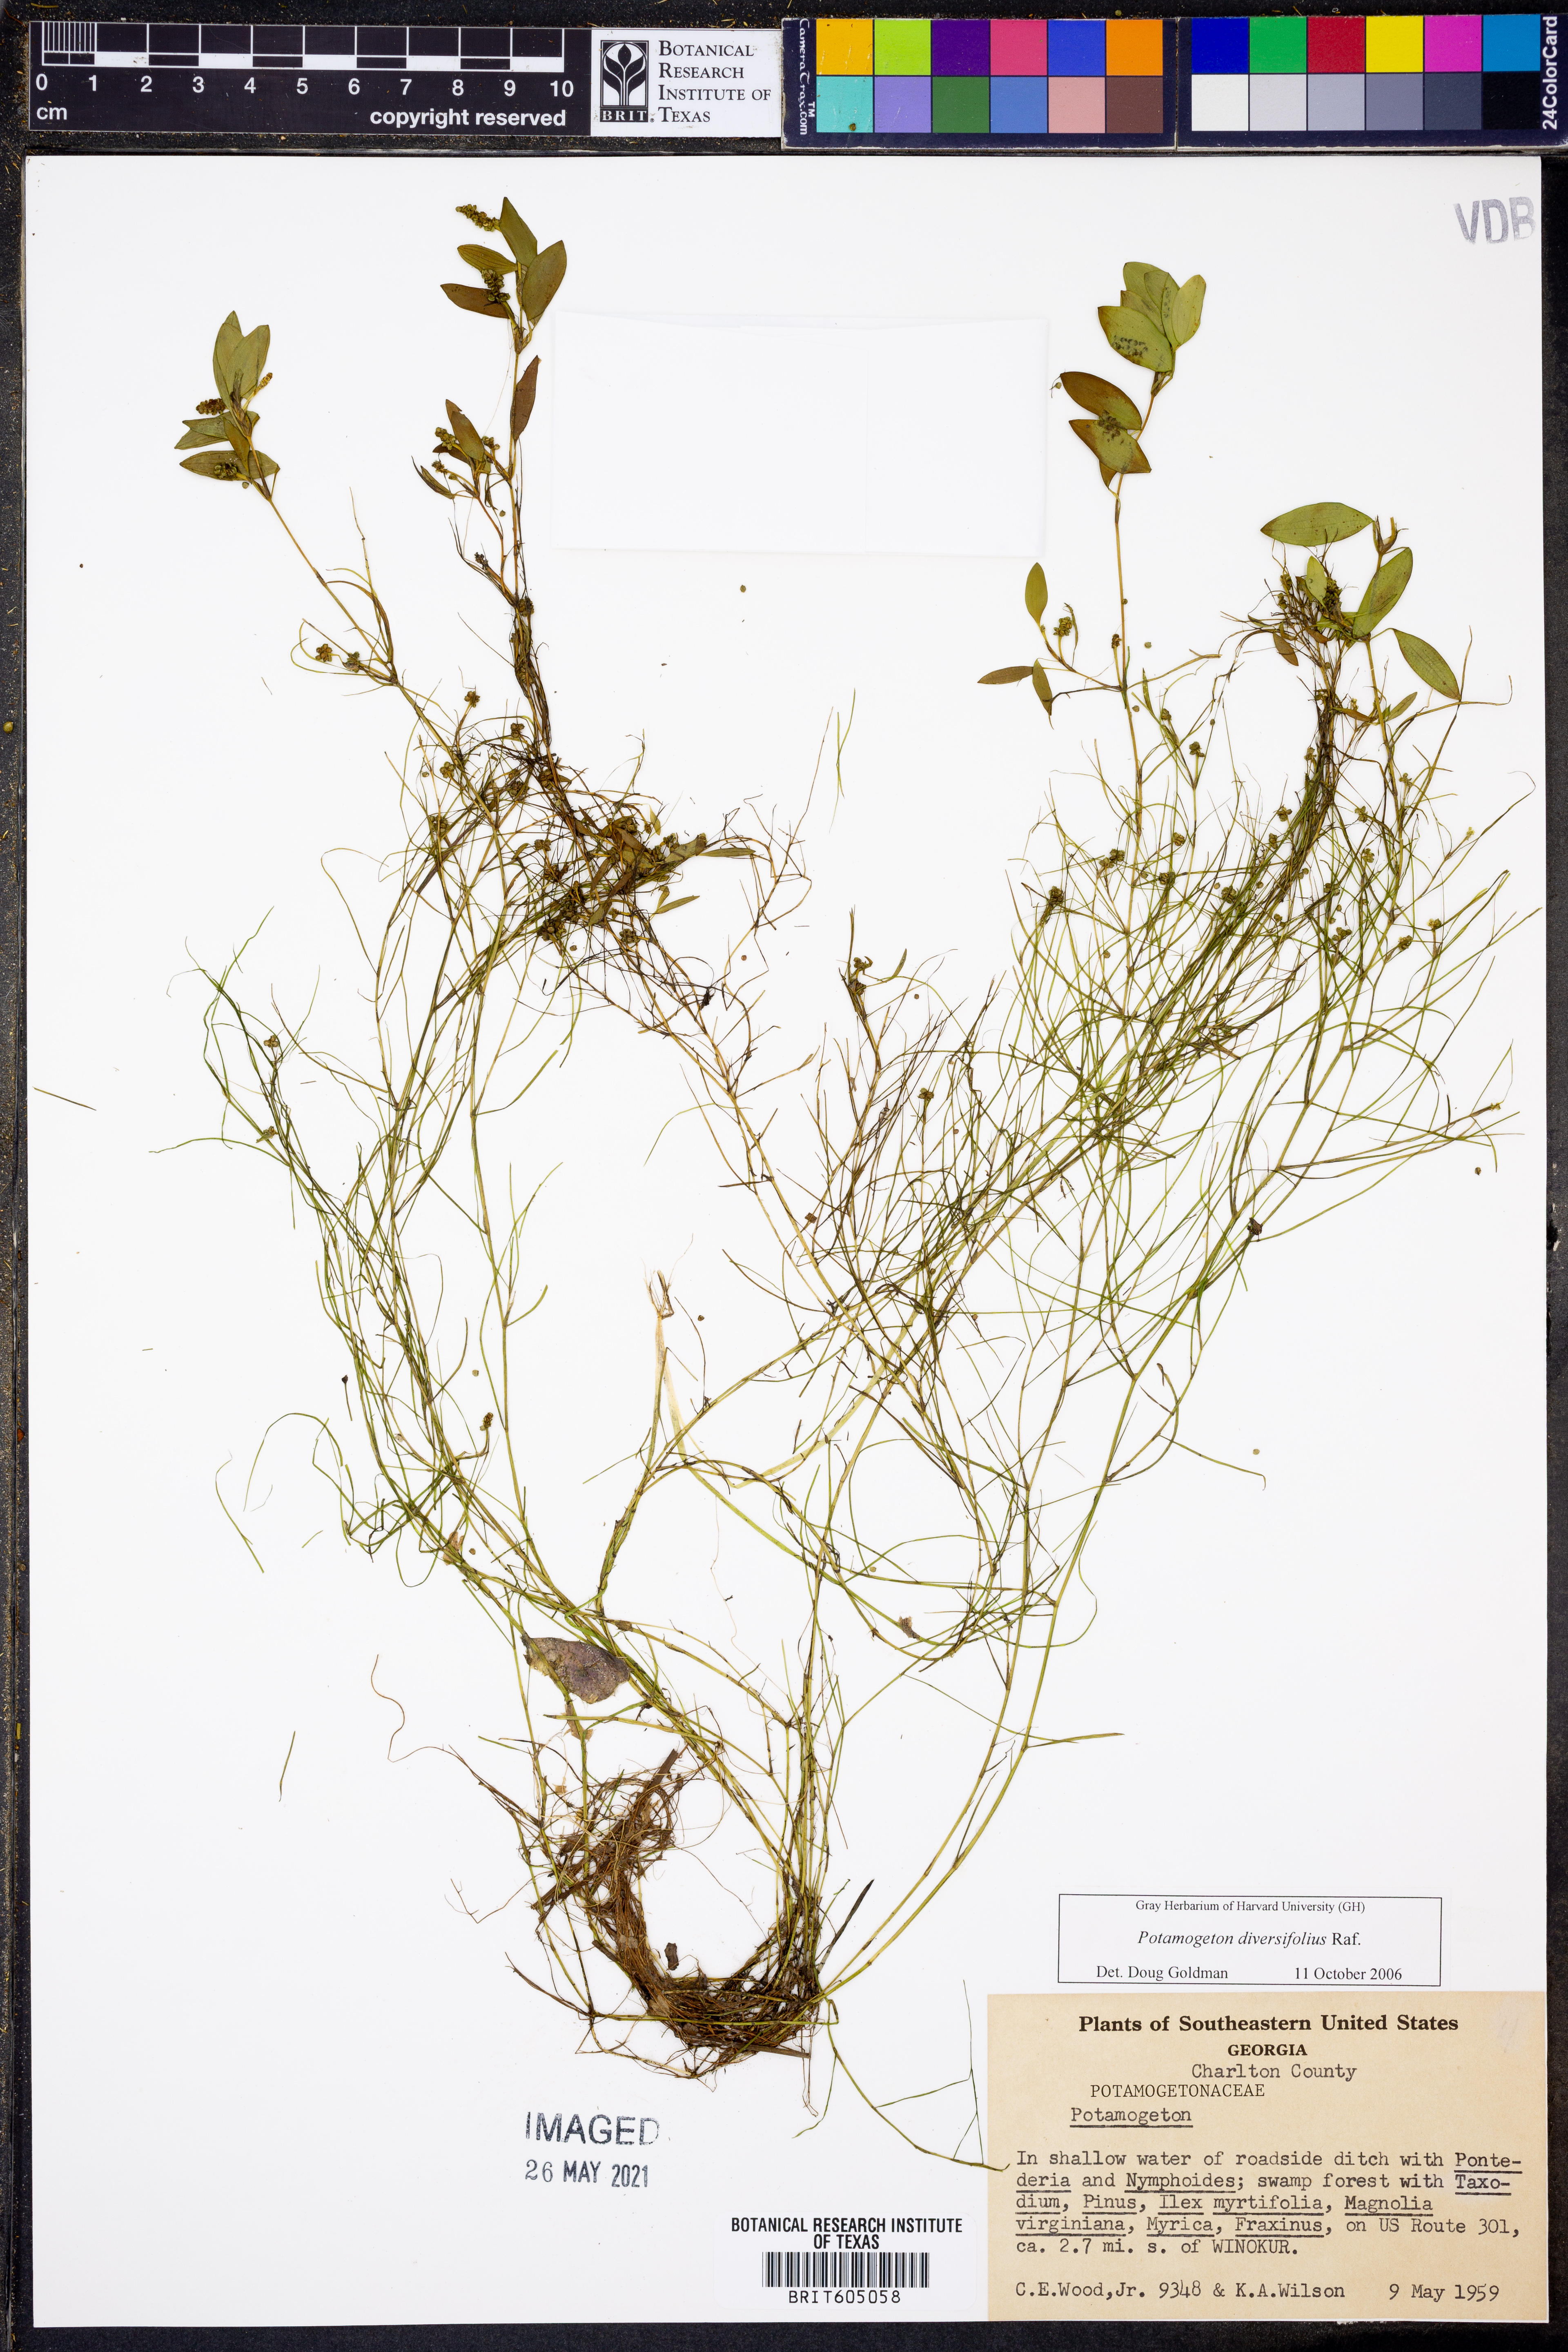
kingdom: Plantae
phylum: Tracheophyta
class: Liliopsida
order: Alismatales
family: Potamogetonaceae
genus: Potamogeton
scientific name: Potamogeton diversifolius
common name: Water-thread pondweed
